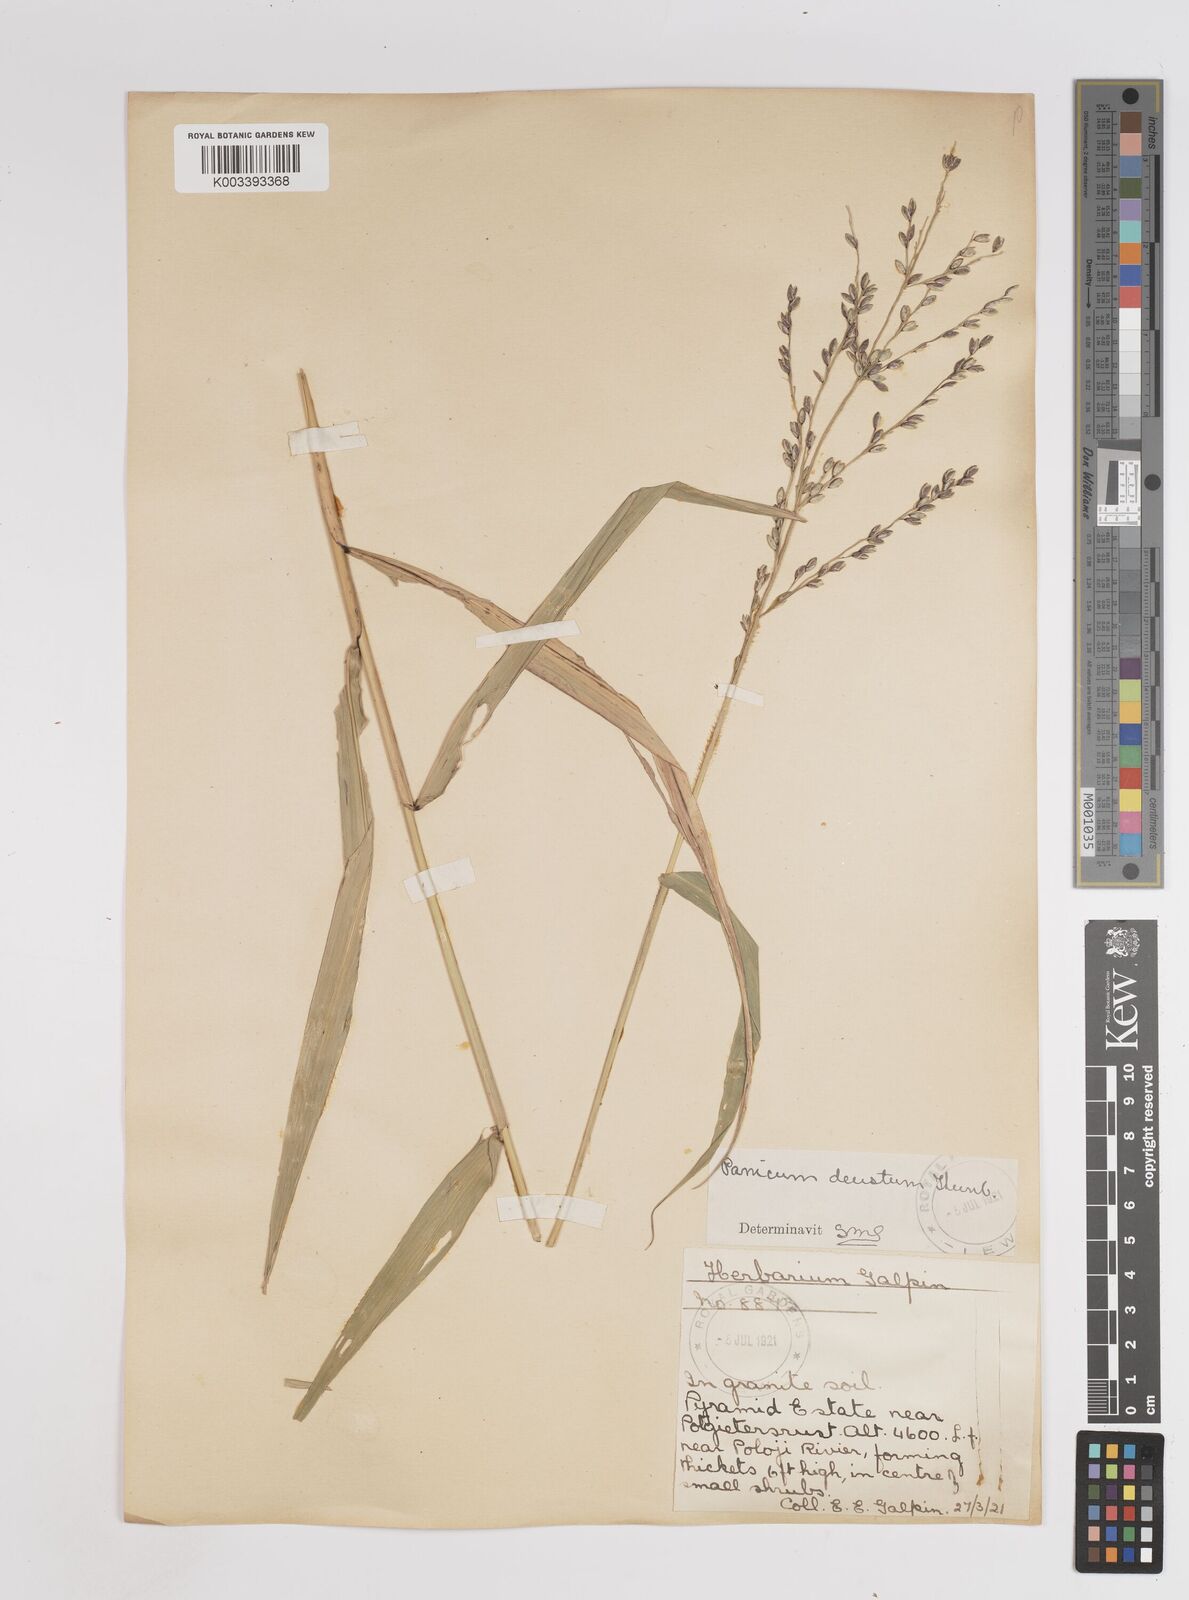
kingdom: Plantae
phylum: Tracheophyta
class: Liliopsida
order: Poales
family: Poaceae
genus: Panicum
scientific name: Panicum deustum
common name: Reed panicum
